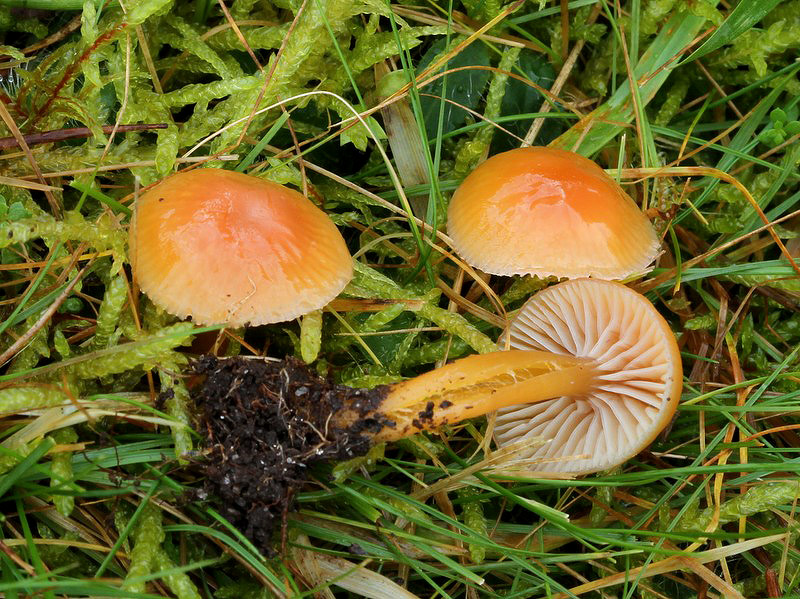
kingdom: Fungi
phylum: Basidiomycota
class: Agaricomycetes
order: Agaricales
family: Hygrophoraceae
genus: Gliophorus
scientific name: Gliophorus laetus
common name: brusk-vokshat
